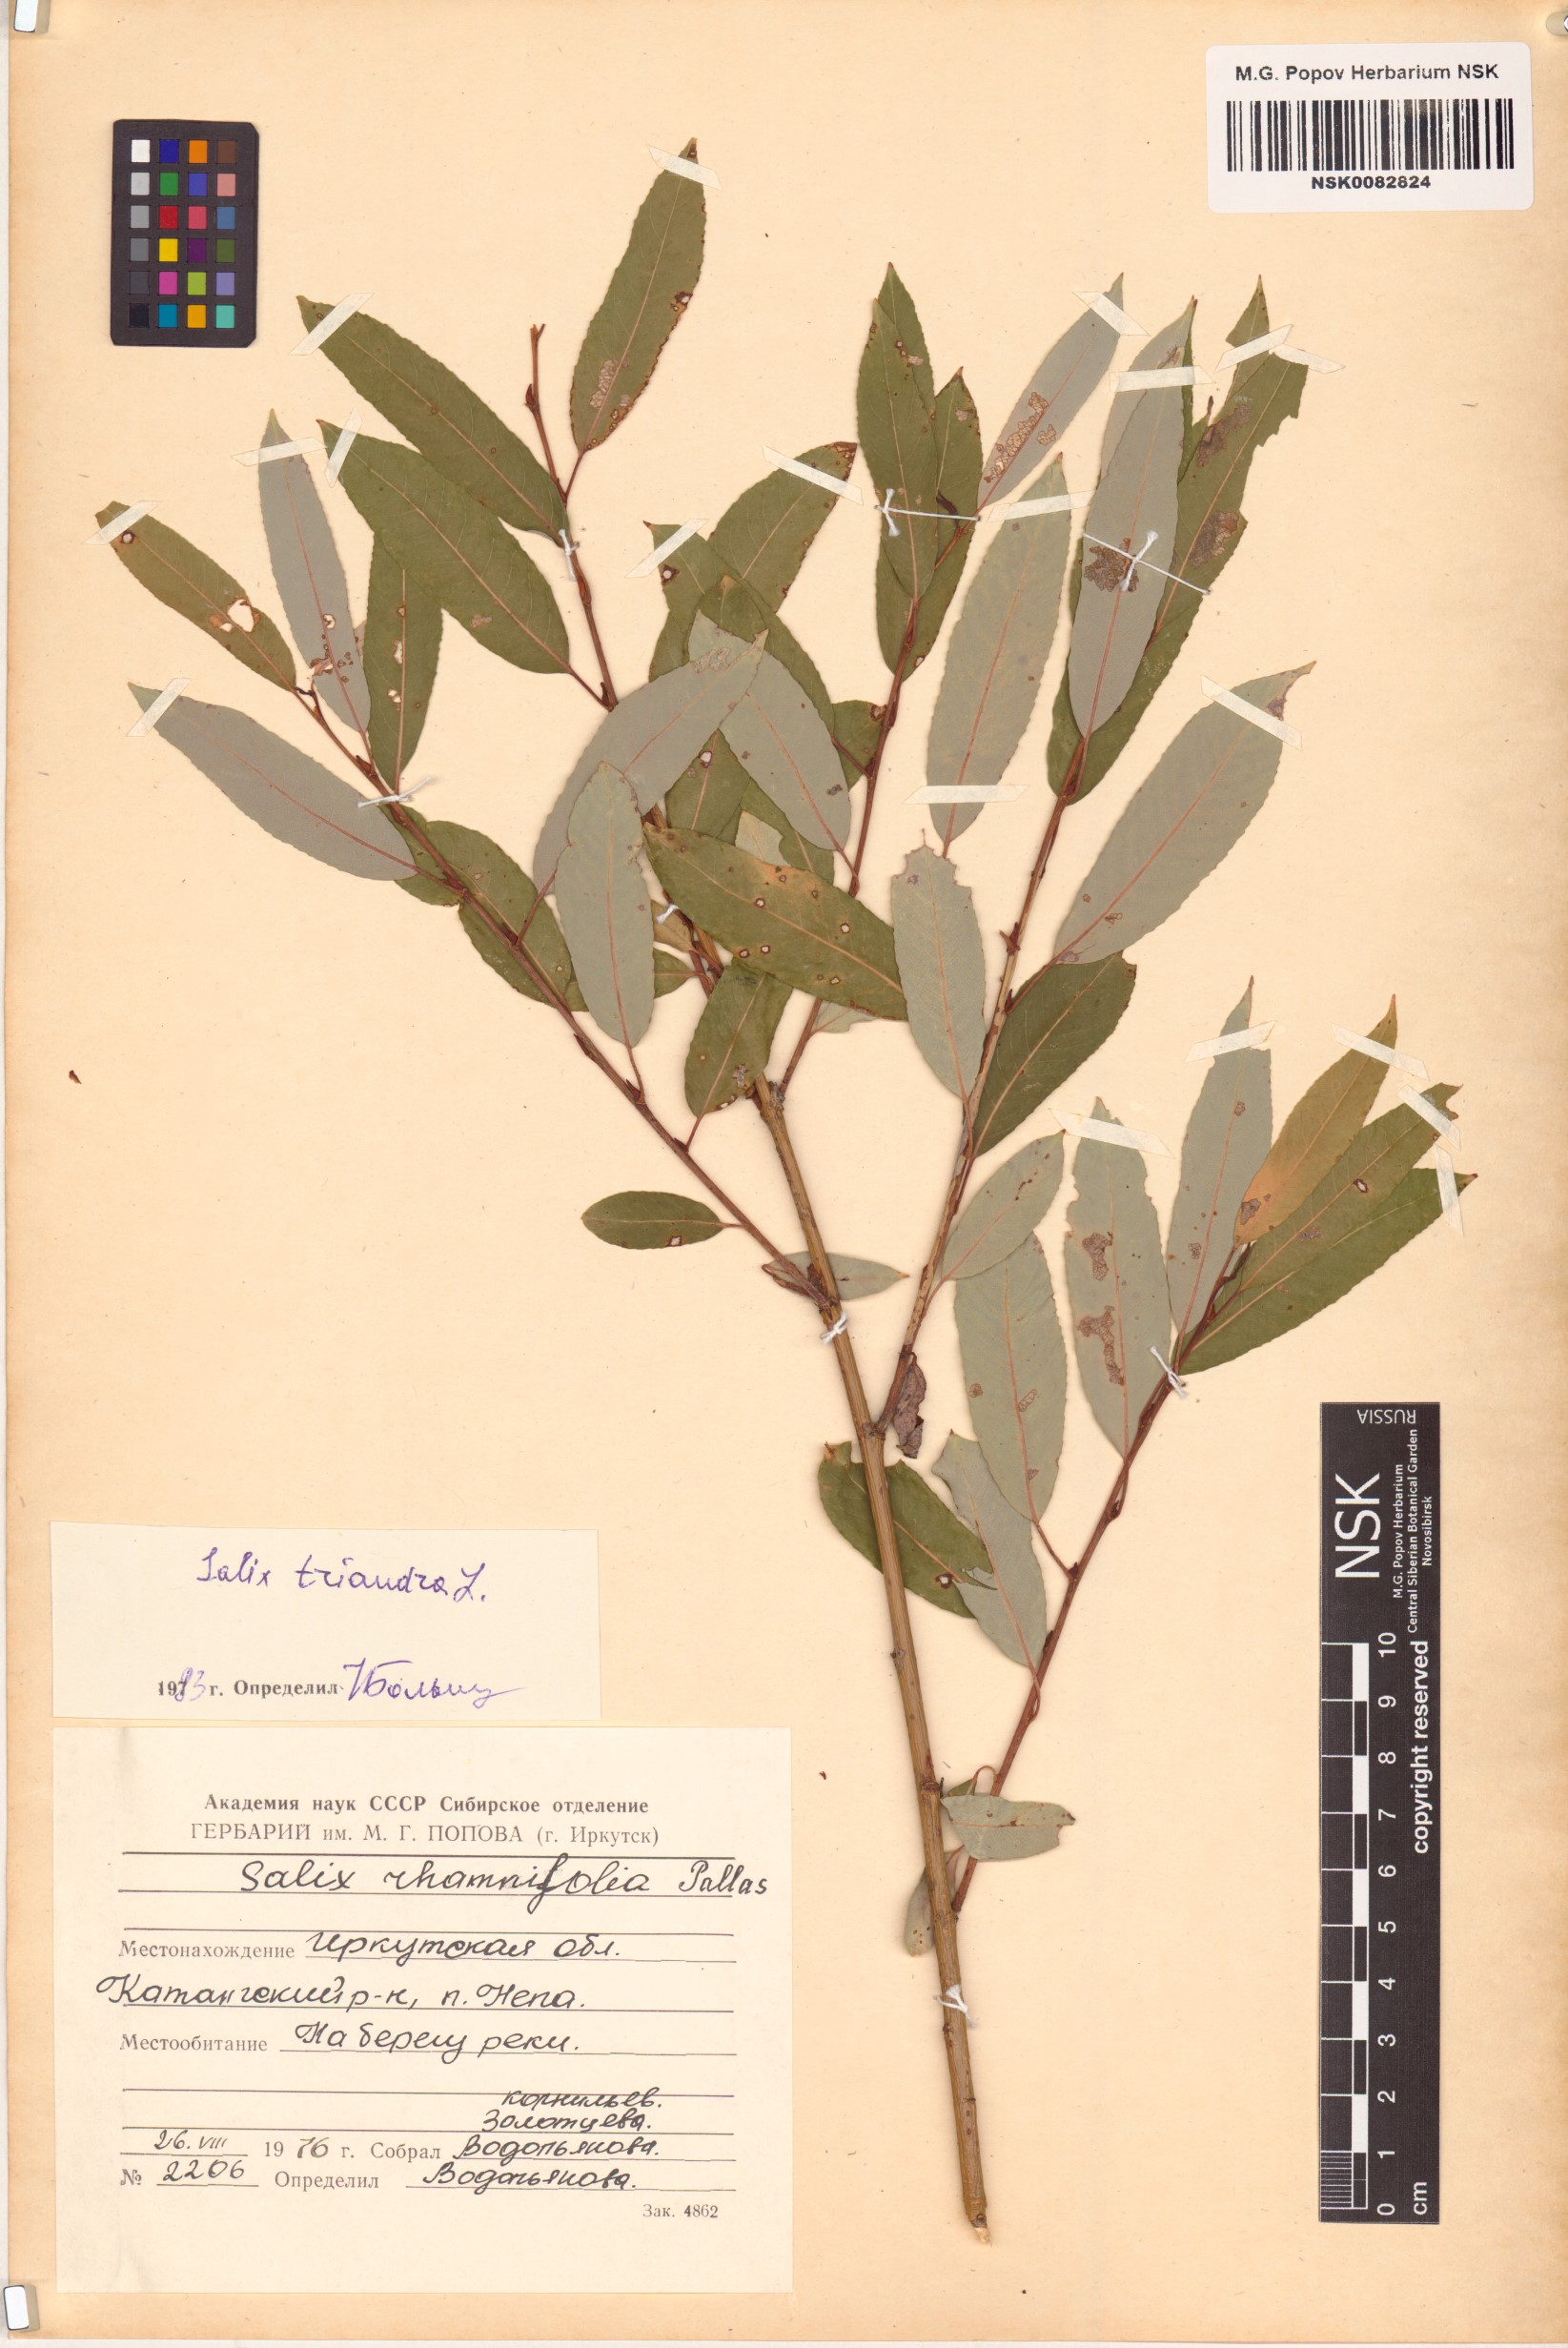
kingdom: Plantae
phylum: Tracheophyta
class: Magnoliopsida
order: Malpighiales
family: Salicaceae
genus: Salix
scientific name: Salix triandra
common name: Almond willow
